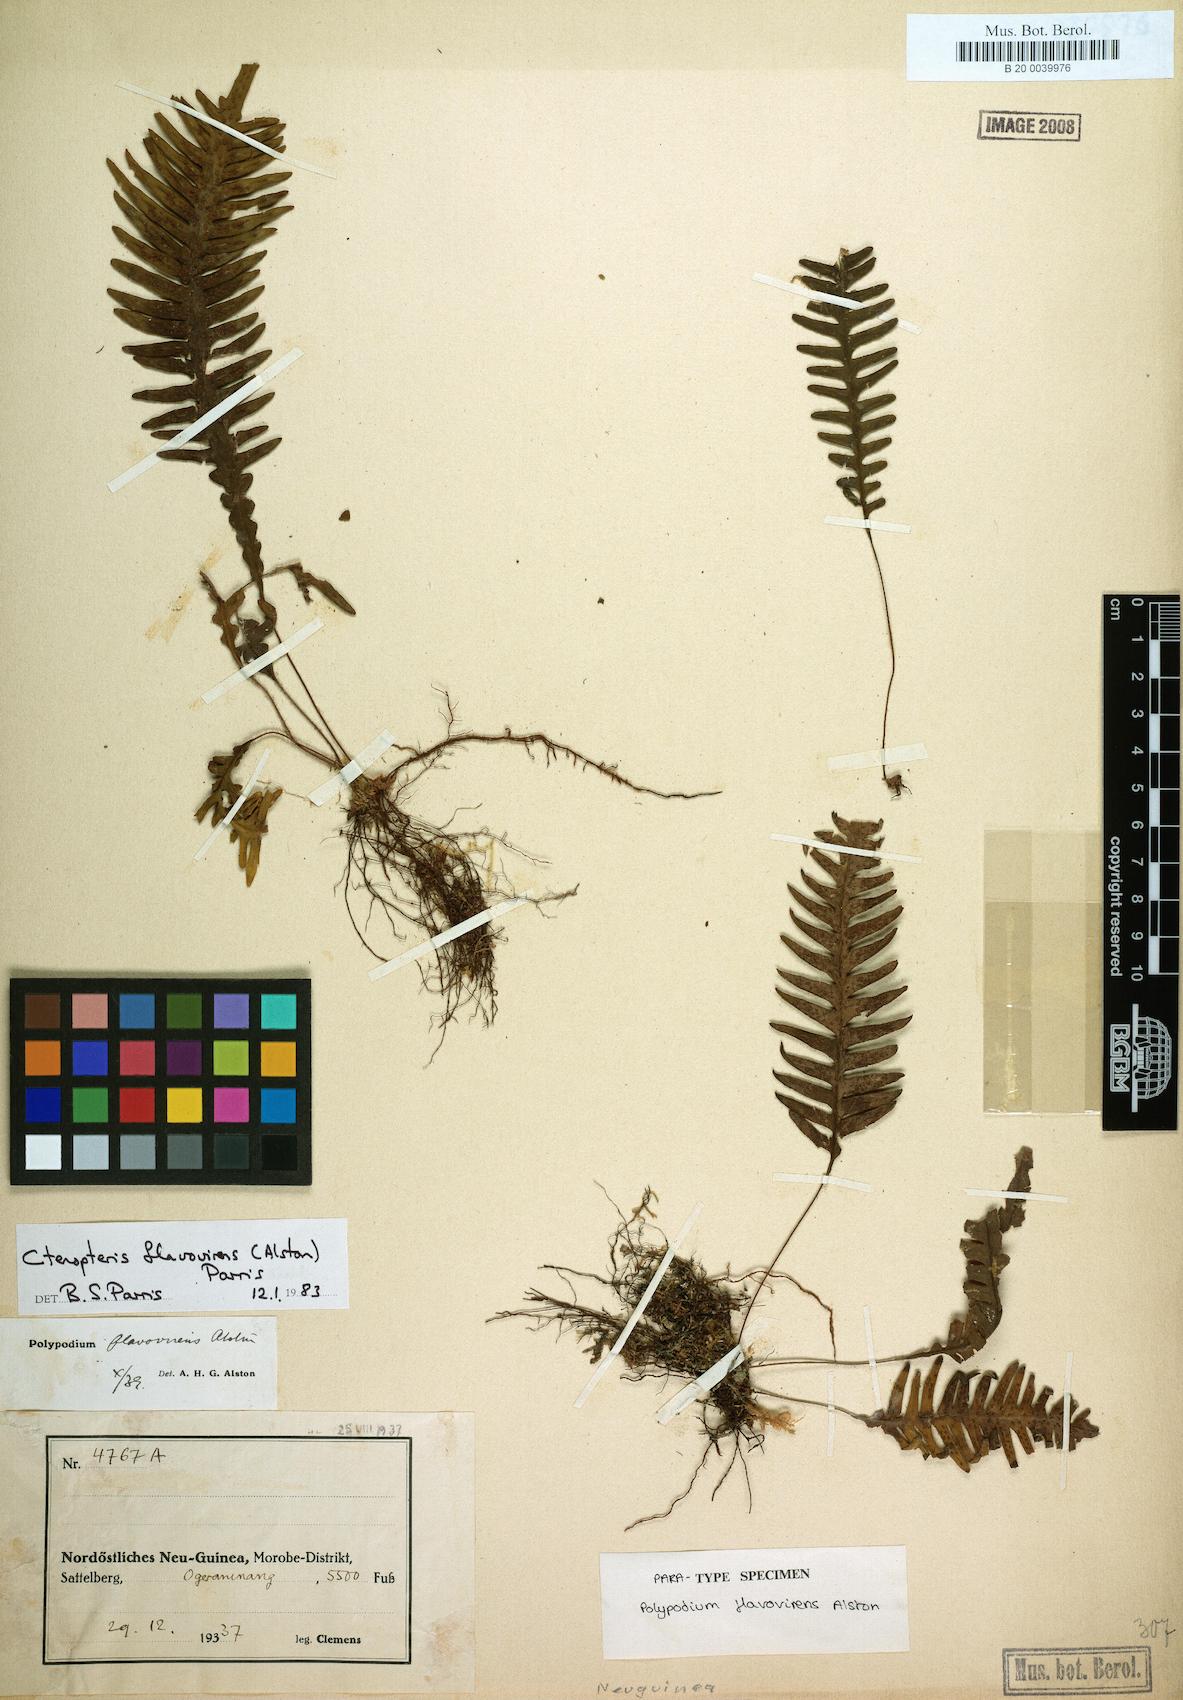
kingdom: Plantae
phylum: Tracheophyta
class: Polypodiopsida
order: Polypodiales
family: Polypodiaceae
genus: Oreogrammitis
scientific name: Oreogrammitis flavovirens
